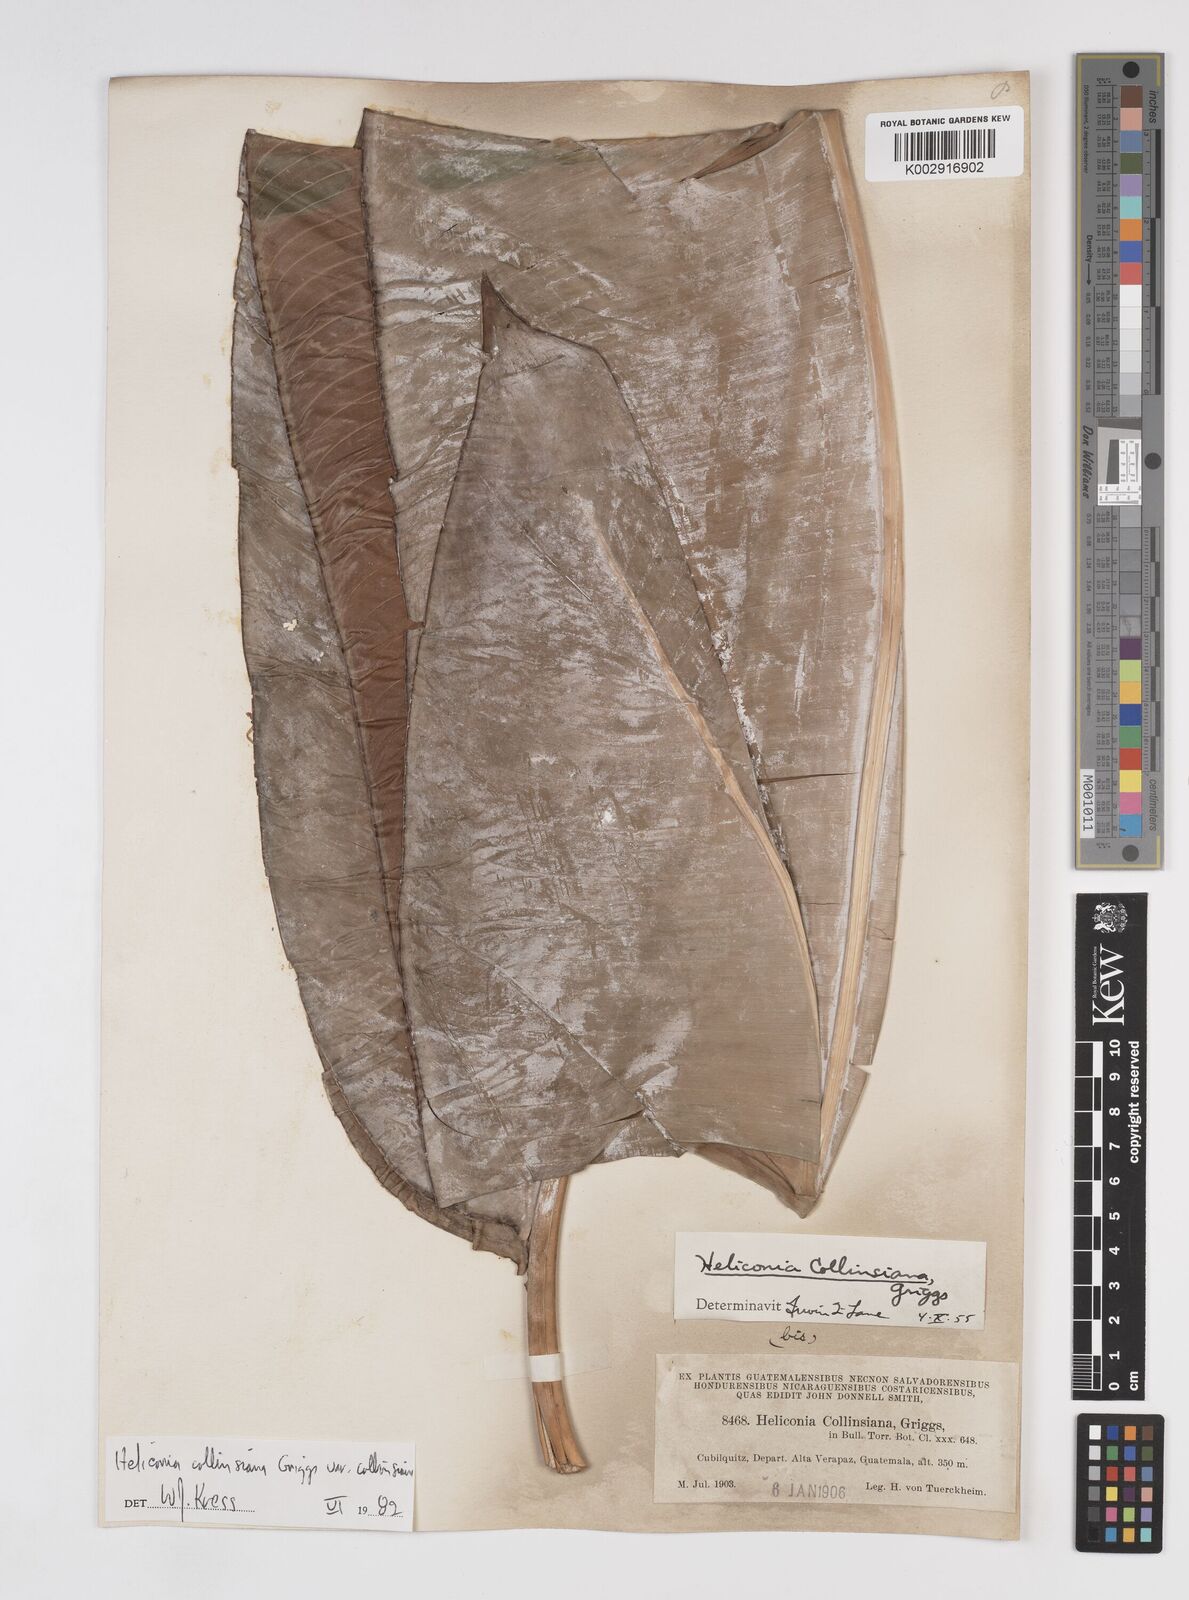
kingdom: Plantae
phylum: Tracheophyta
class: Liliopsida
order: Zingiberales
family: Heliconiaceae
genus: Heliconia
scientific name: Heliconia collinsiana
